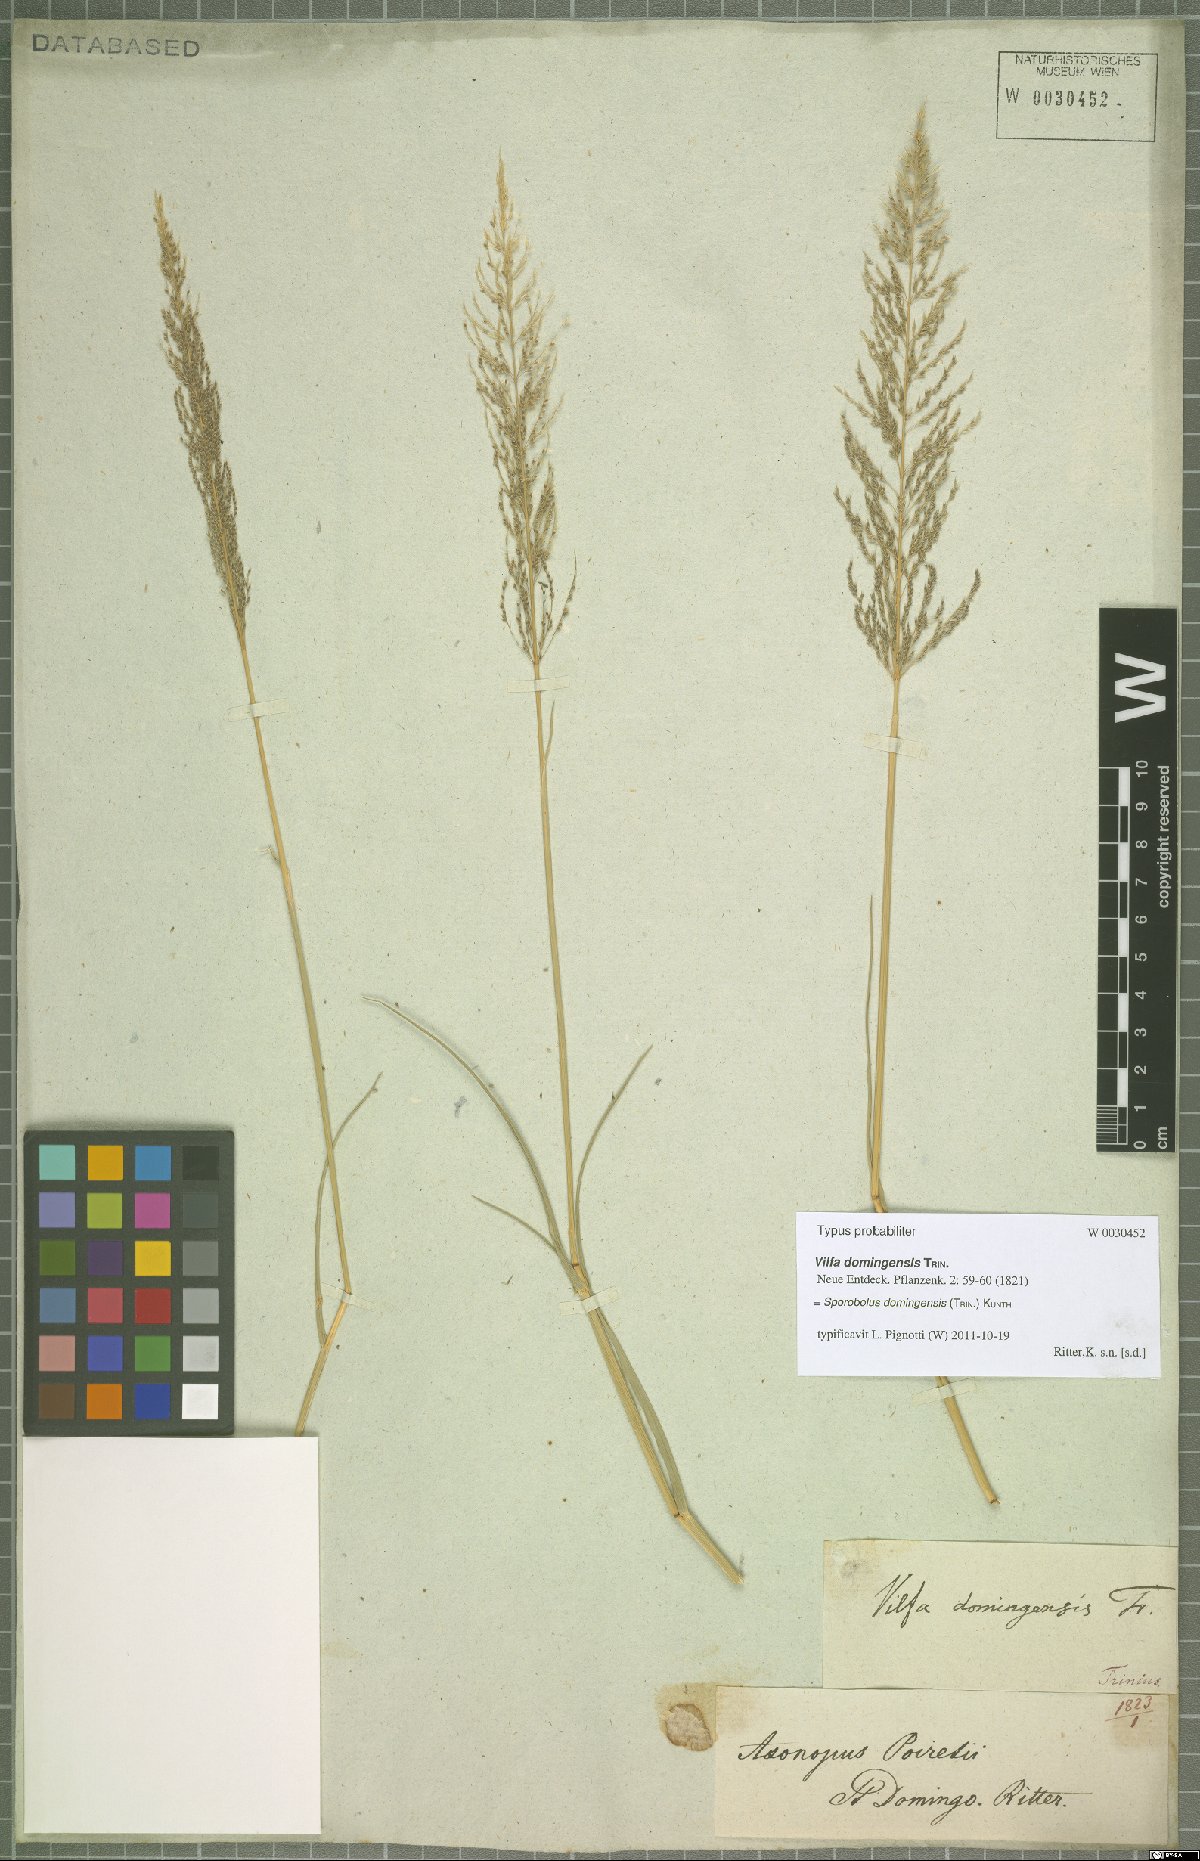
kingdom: Plantae
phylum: Tracheophyta
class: Liliopsida
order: Poales
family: Poaceae
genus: Sporobolus
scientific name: Sporobolus domingensis
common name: Coral dropseed
